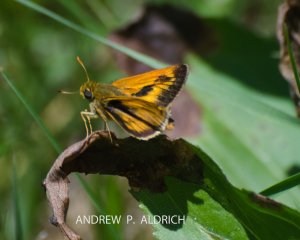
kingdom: Animalia
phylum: Arthropoda
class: Insecta
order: Lepidoptera
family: Hesperiidae
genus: Polites
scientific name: Polites
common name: Long Dash Skipper
